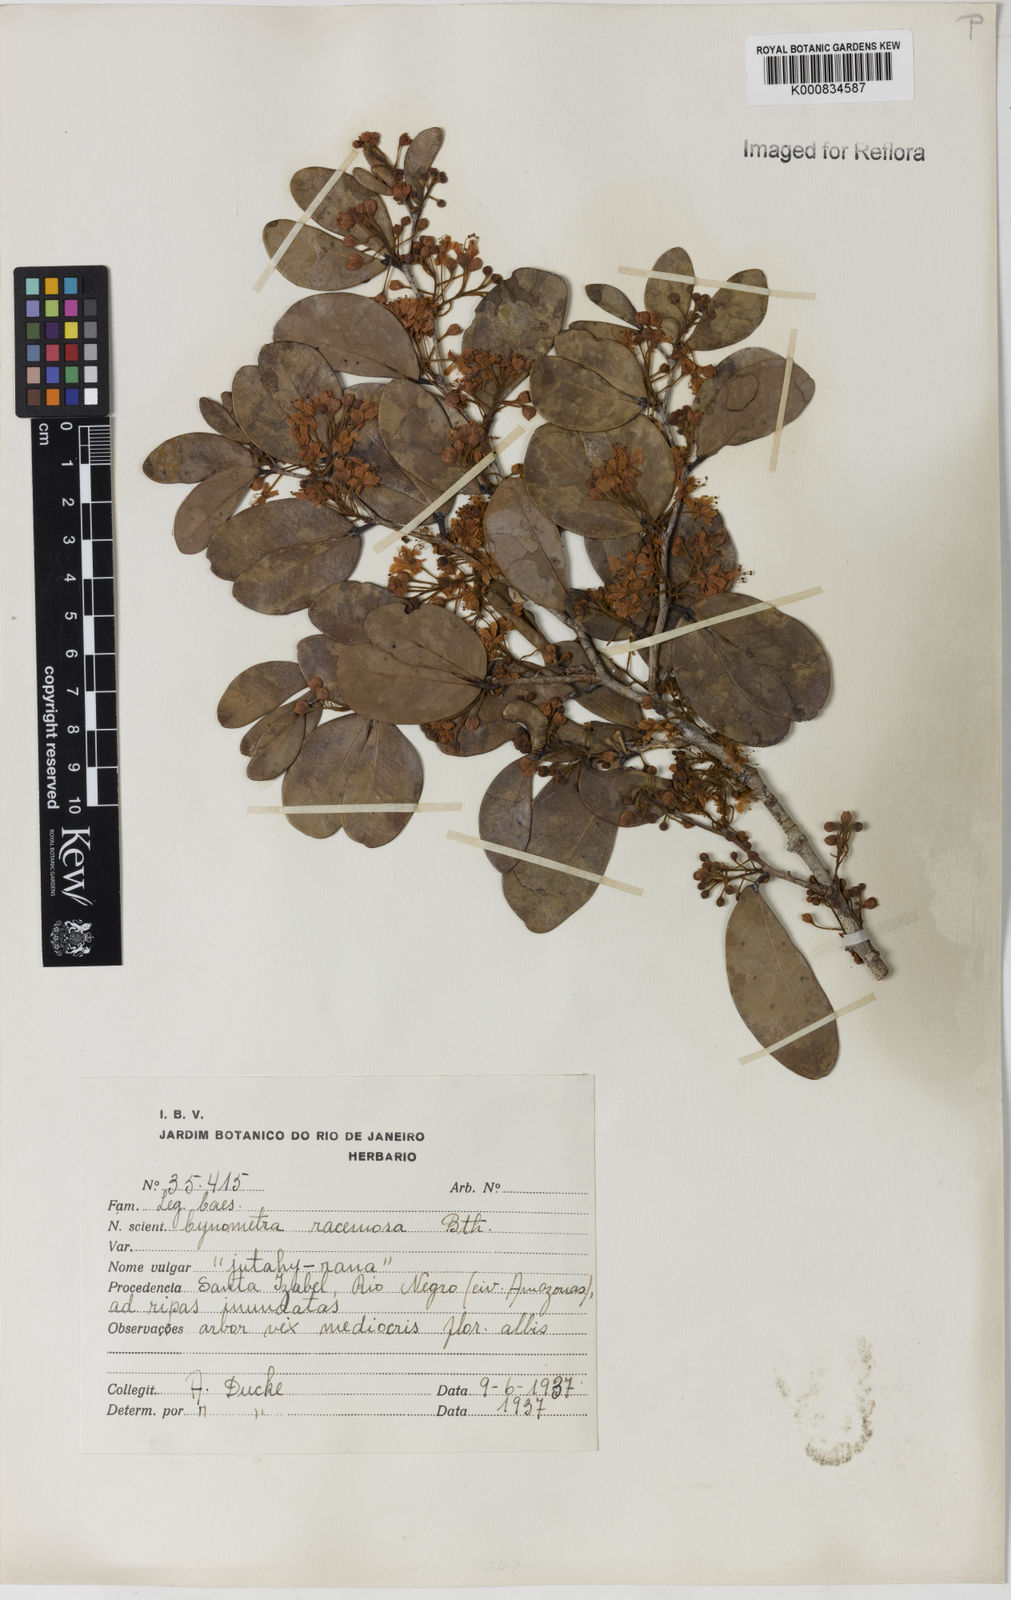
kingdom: Plantae
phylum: Tracheophyta
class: Magnoliopsida
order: Fabales
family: Fabaceae
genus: Cynometra
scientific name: Cynometra phaselocarpa
